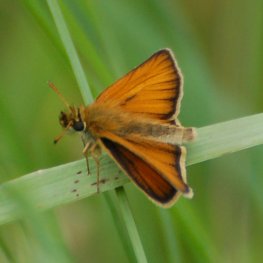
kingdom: Animalia
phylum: Arthropoda
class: Insecta
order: Lepidoptera
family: Hesperiidae
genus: Thymelicus
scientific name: Thymelicus lineola
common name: European Skipper
